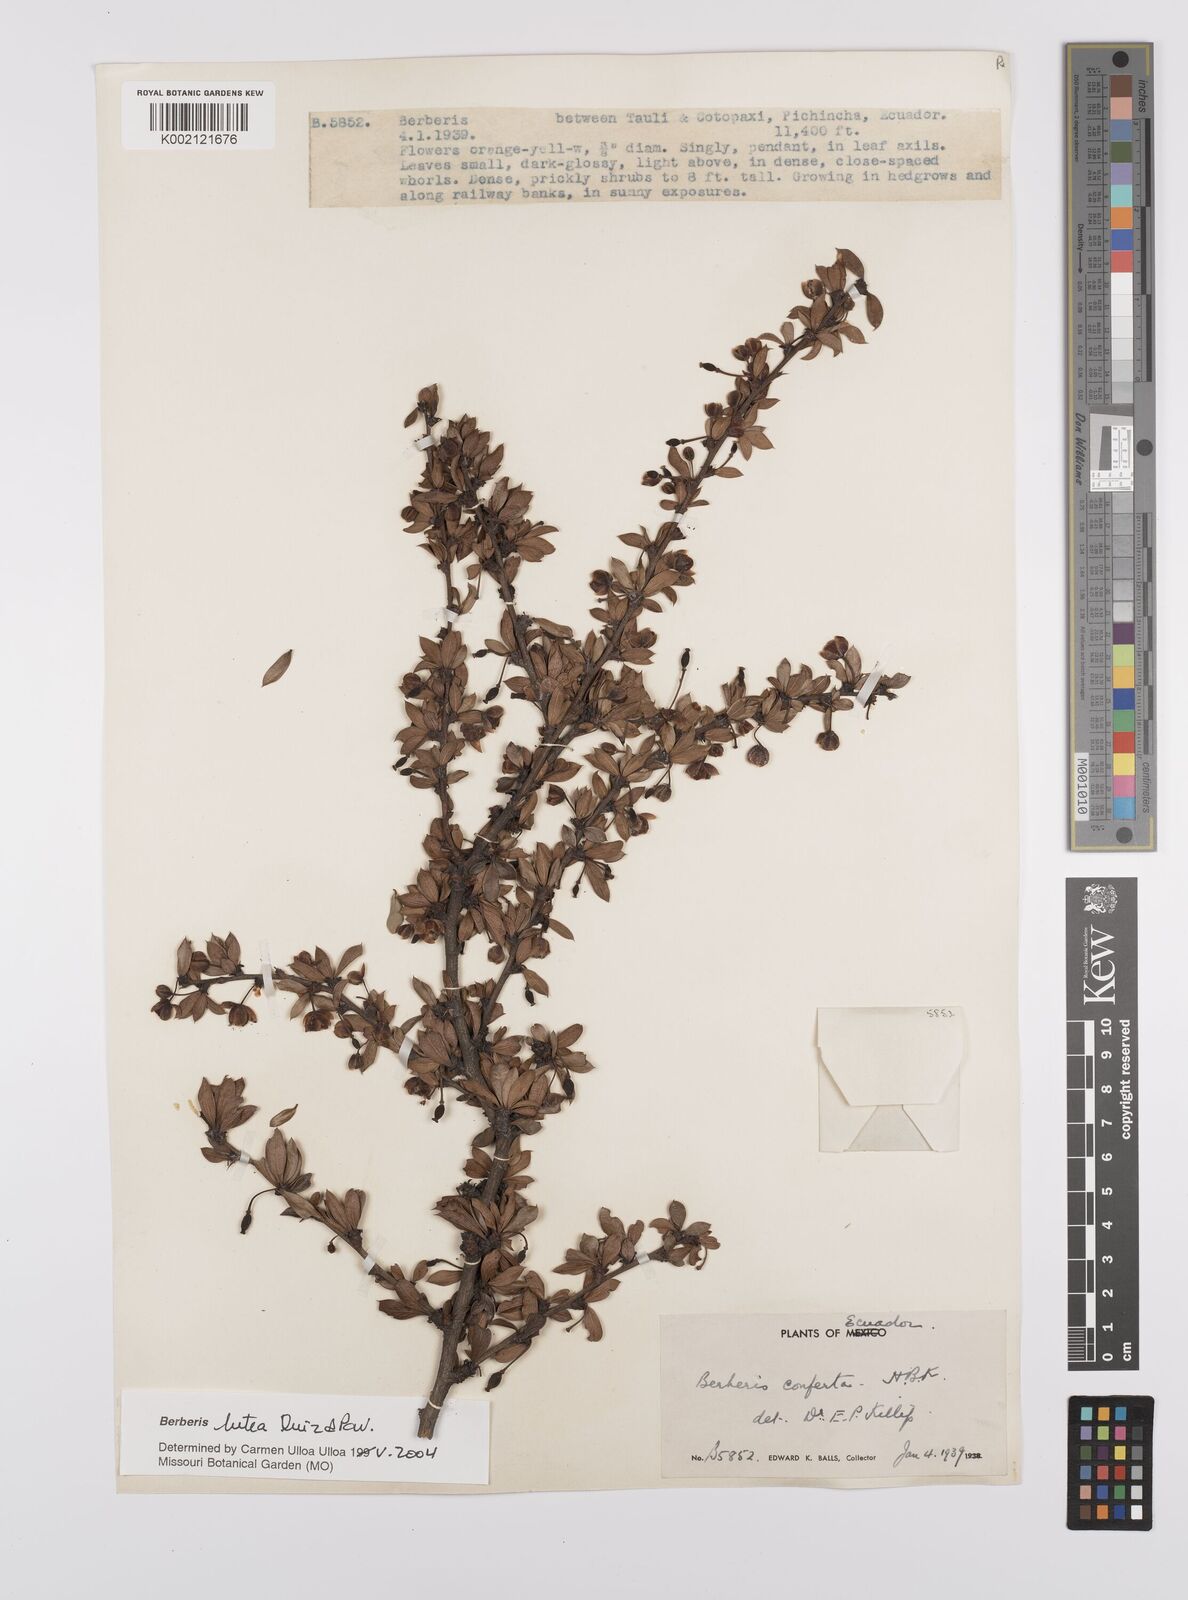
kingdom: Plantae
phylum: Tracheophyta
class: Magnoliopsida
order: Ranunculales
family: Berberidaceae
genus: Berberis
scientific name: Berberis lutea
